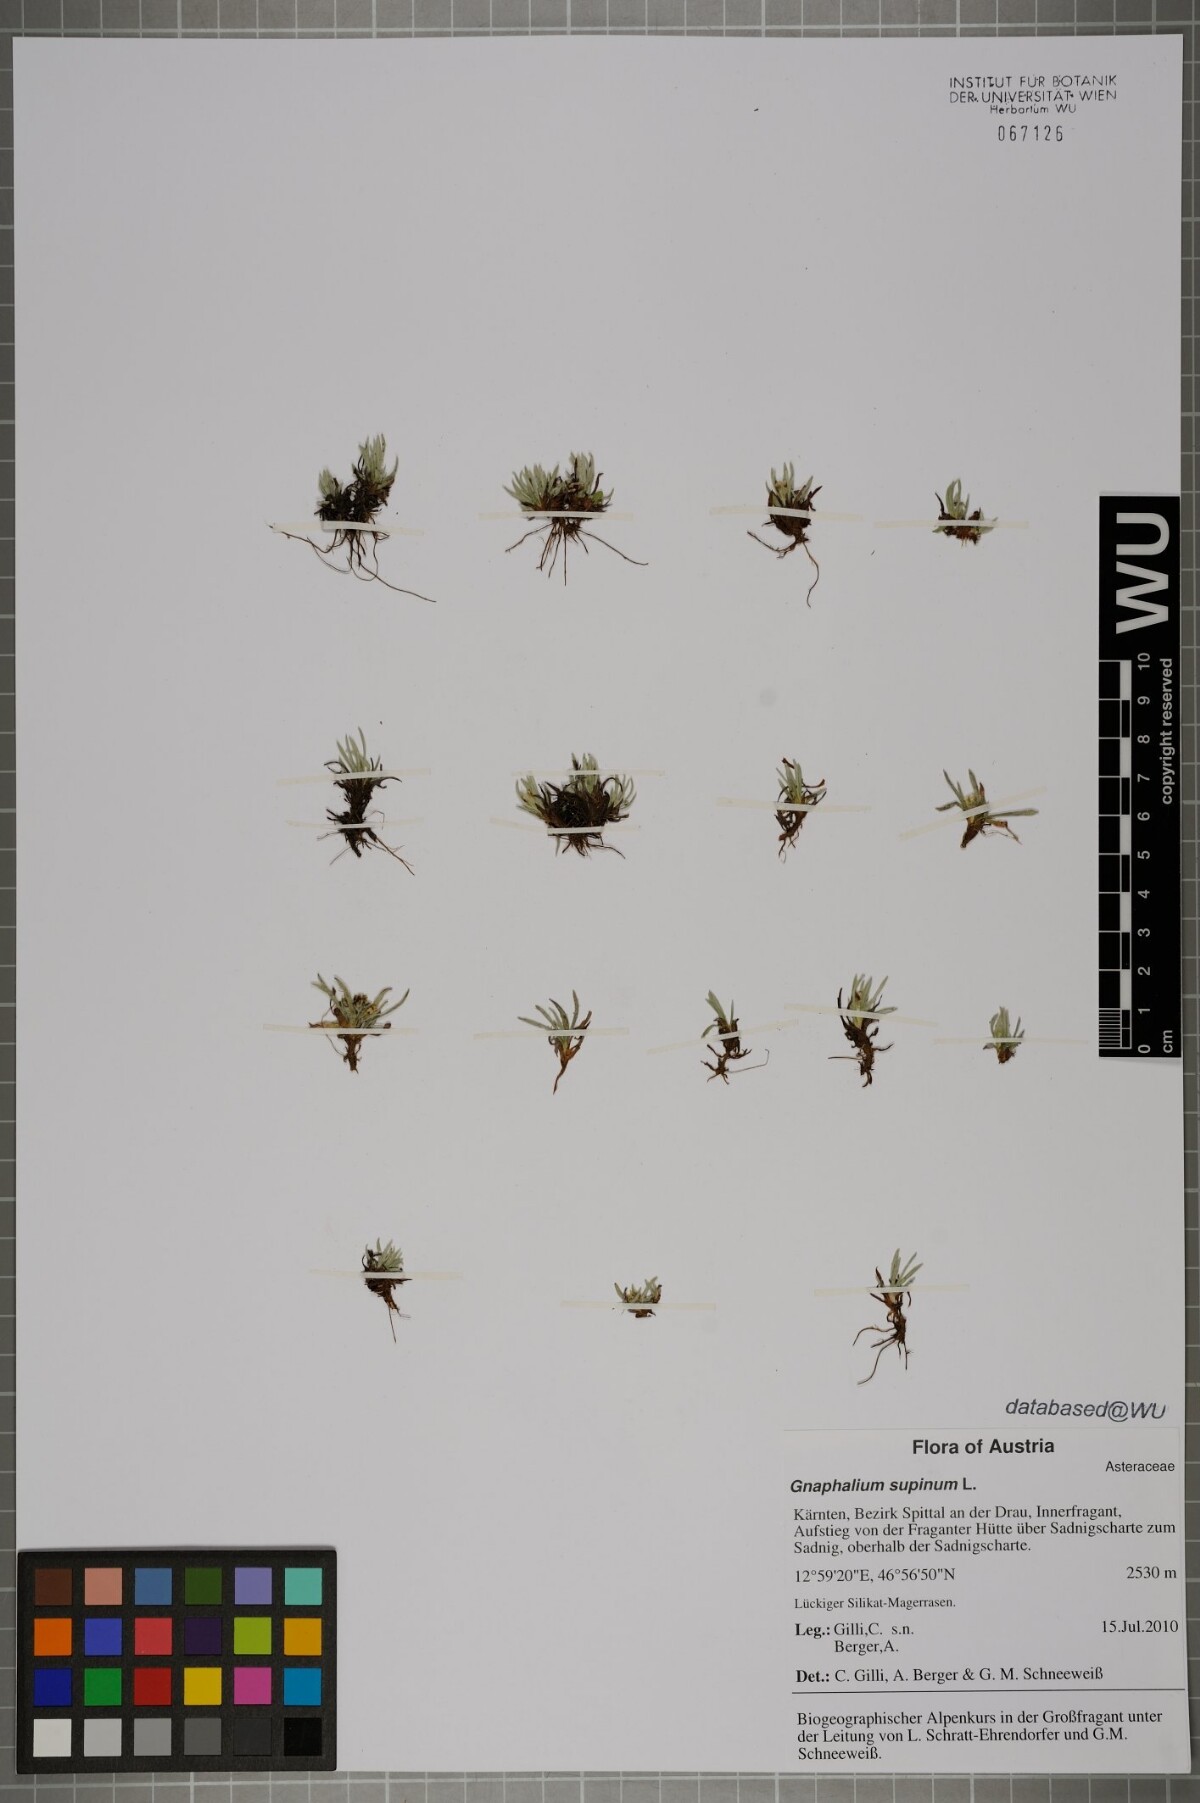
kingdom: Plantae
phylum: Tracheophyta
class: Magnoliopsida
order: Asterales
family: Asteraceae
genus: Omalotheca
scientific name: Omalotheca supina
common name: Alpine arctic-cudweed
